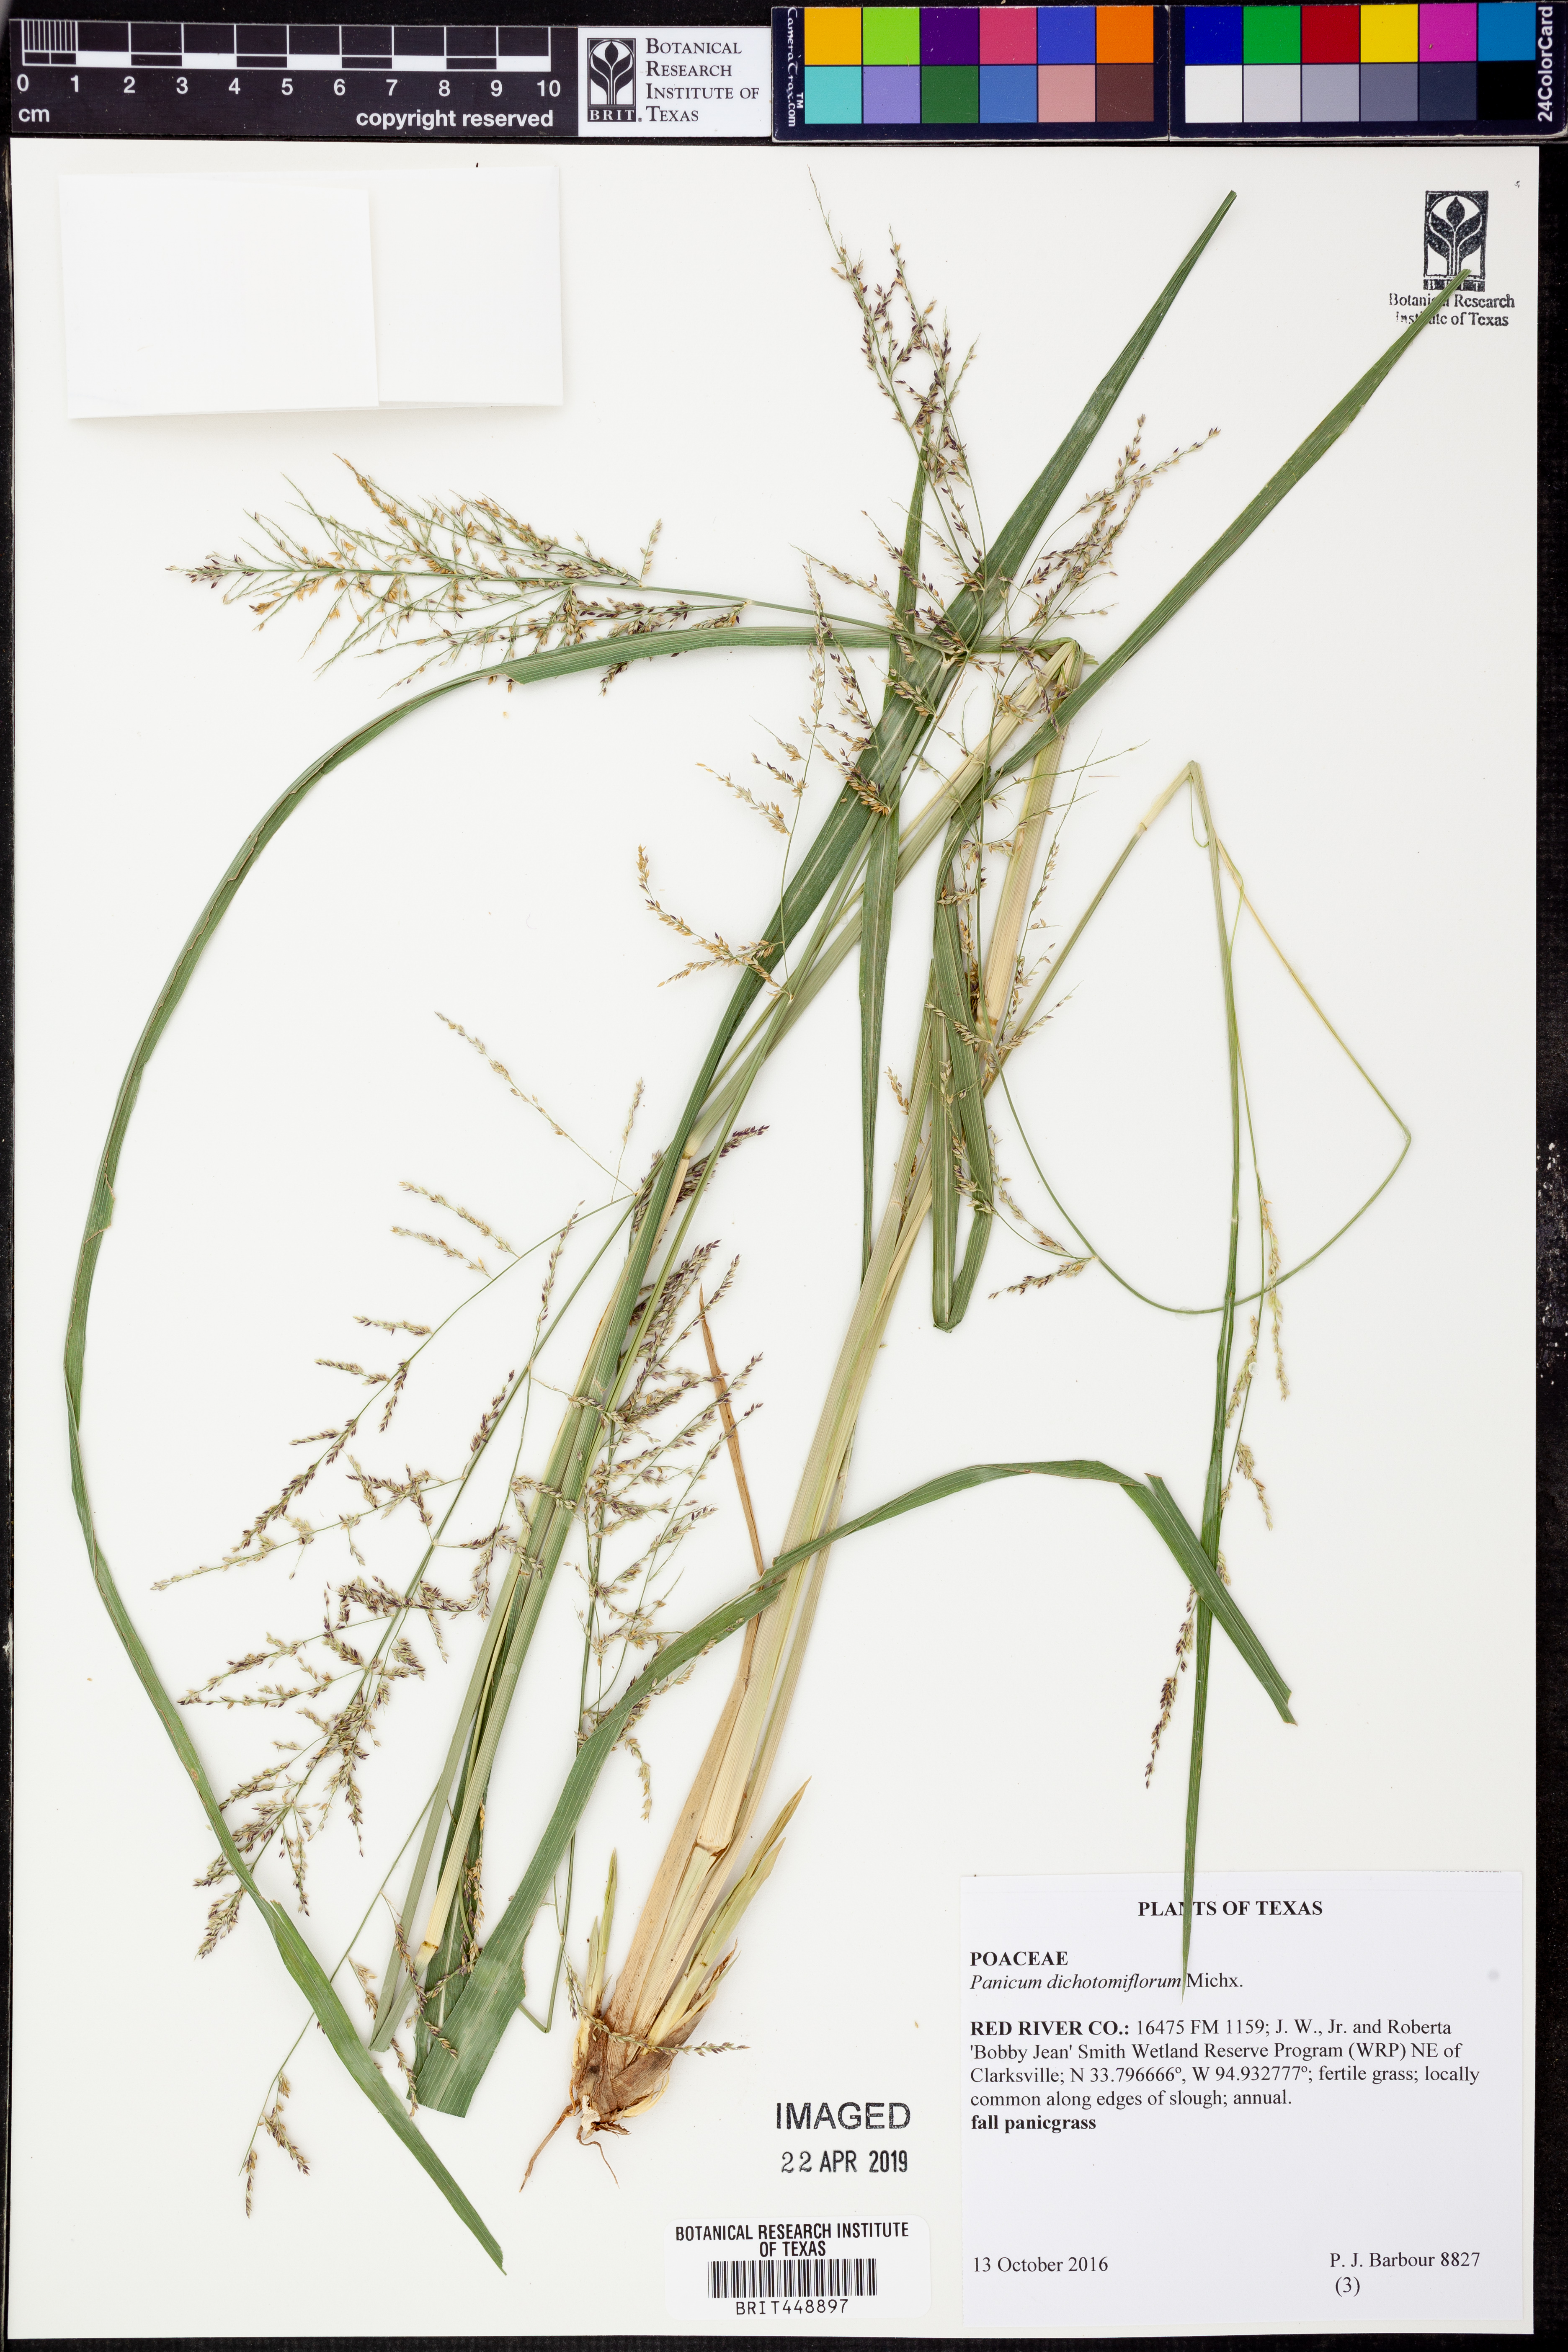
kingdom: Plantae
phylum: Tracheophyta
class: Liliopsida
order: Poales
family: Poaceae
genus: Panicum
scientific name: Panicum dichotomiflorum
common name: Autumn millet
